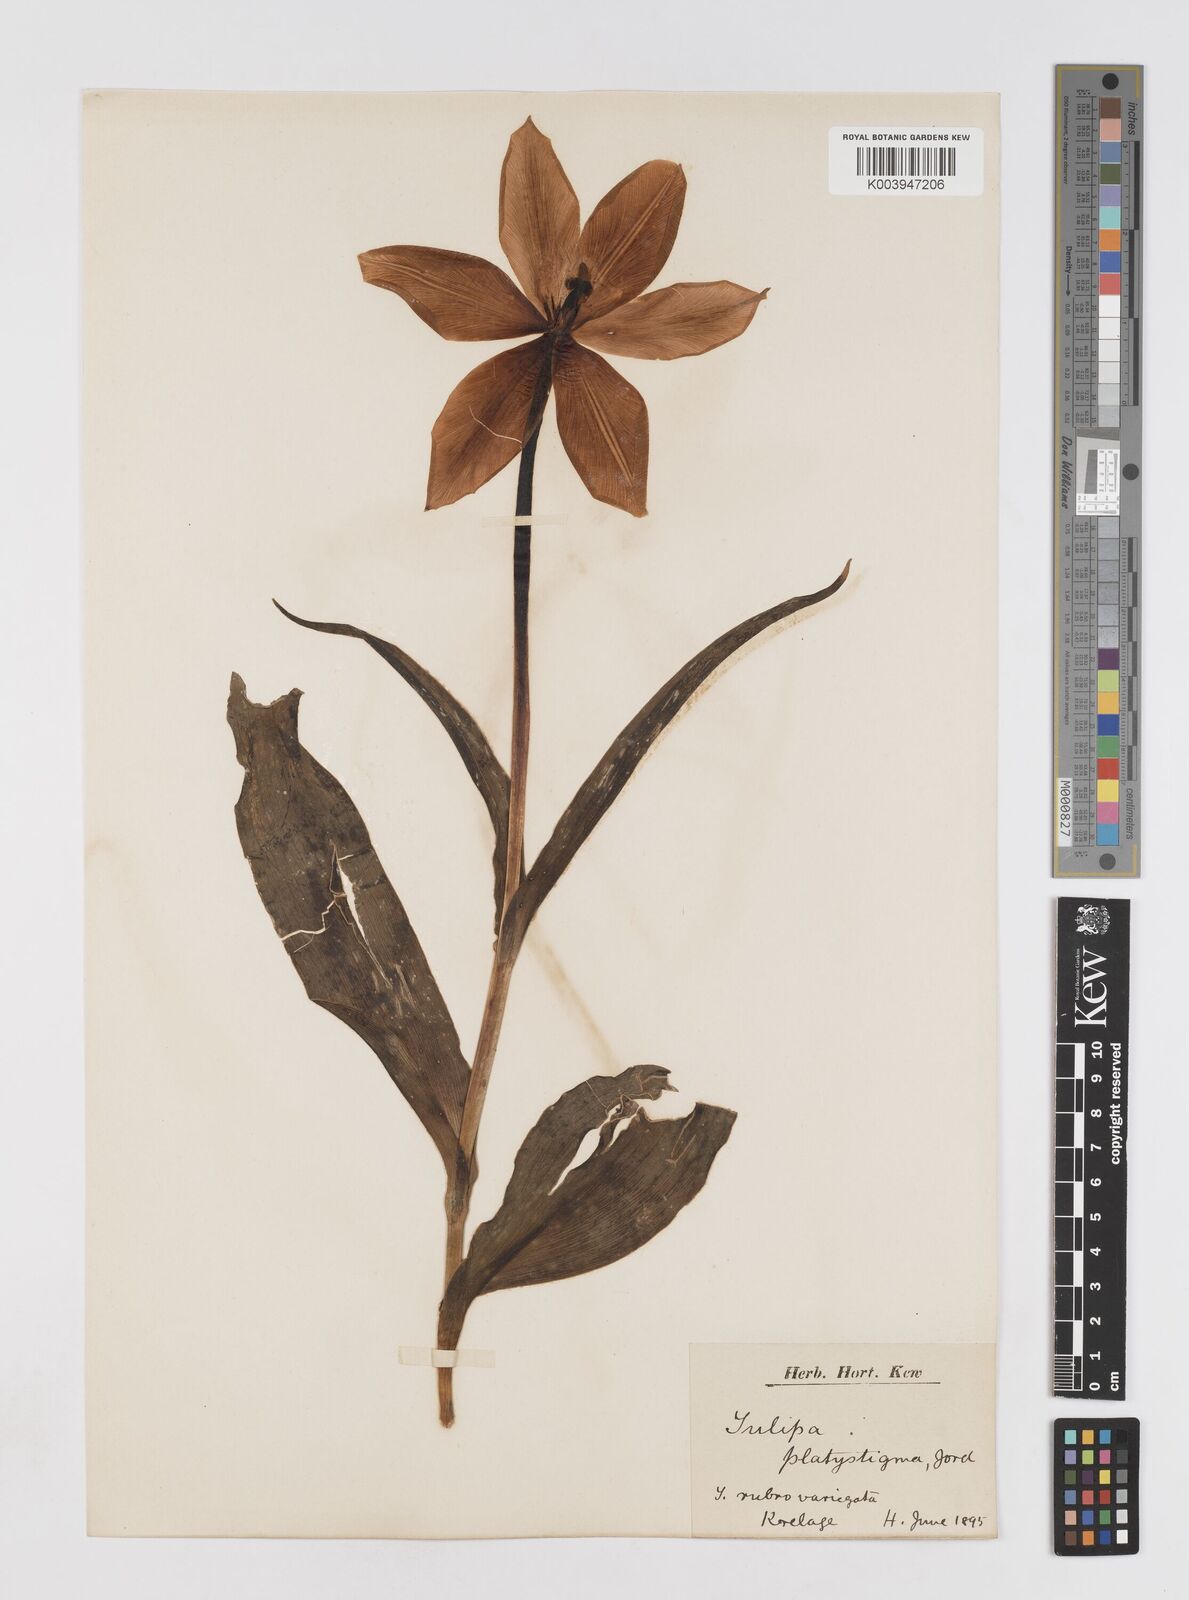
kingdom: Plantae
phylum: Tracheophyta
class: Liliopsida
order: Liliales
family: Liliaceae
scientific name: Liliaceae
